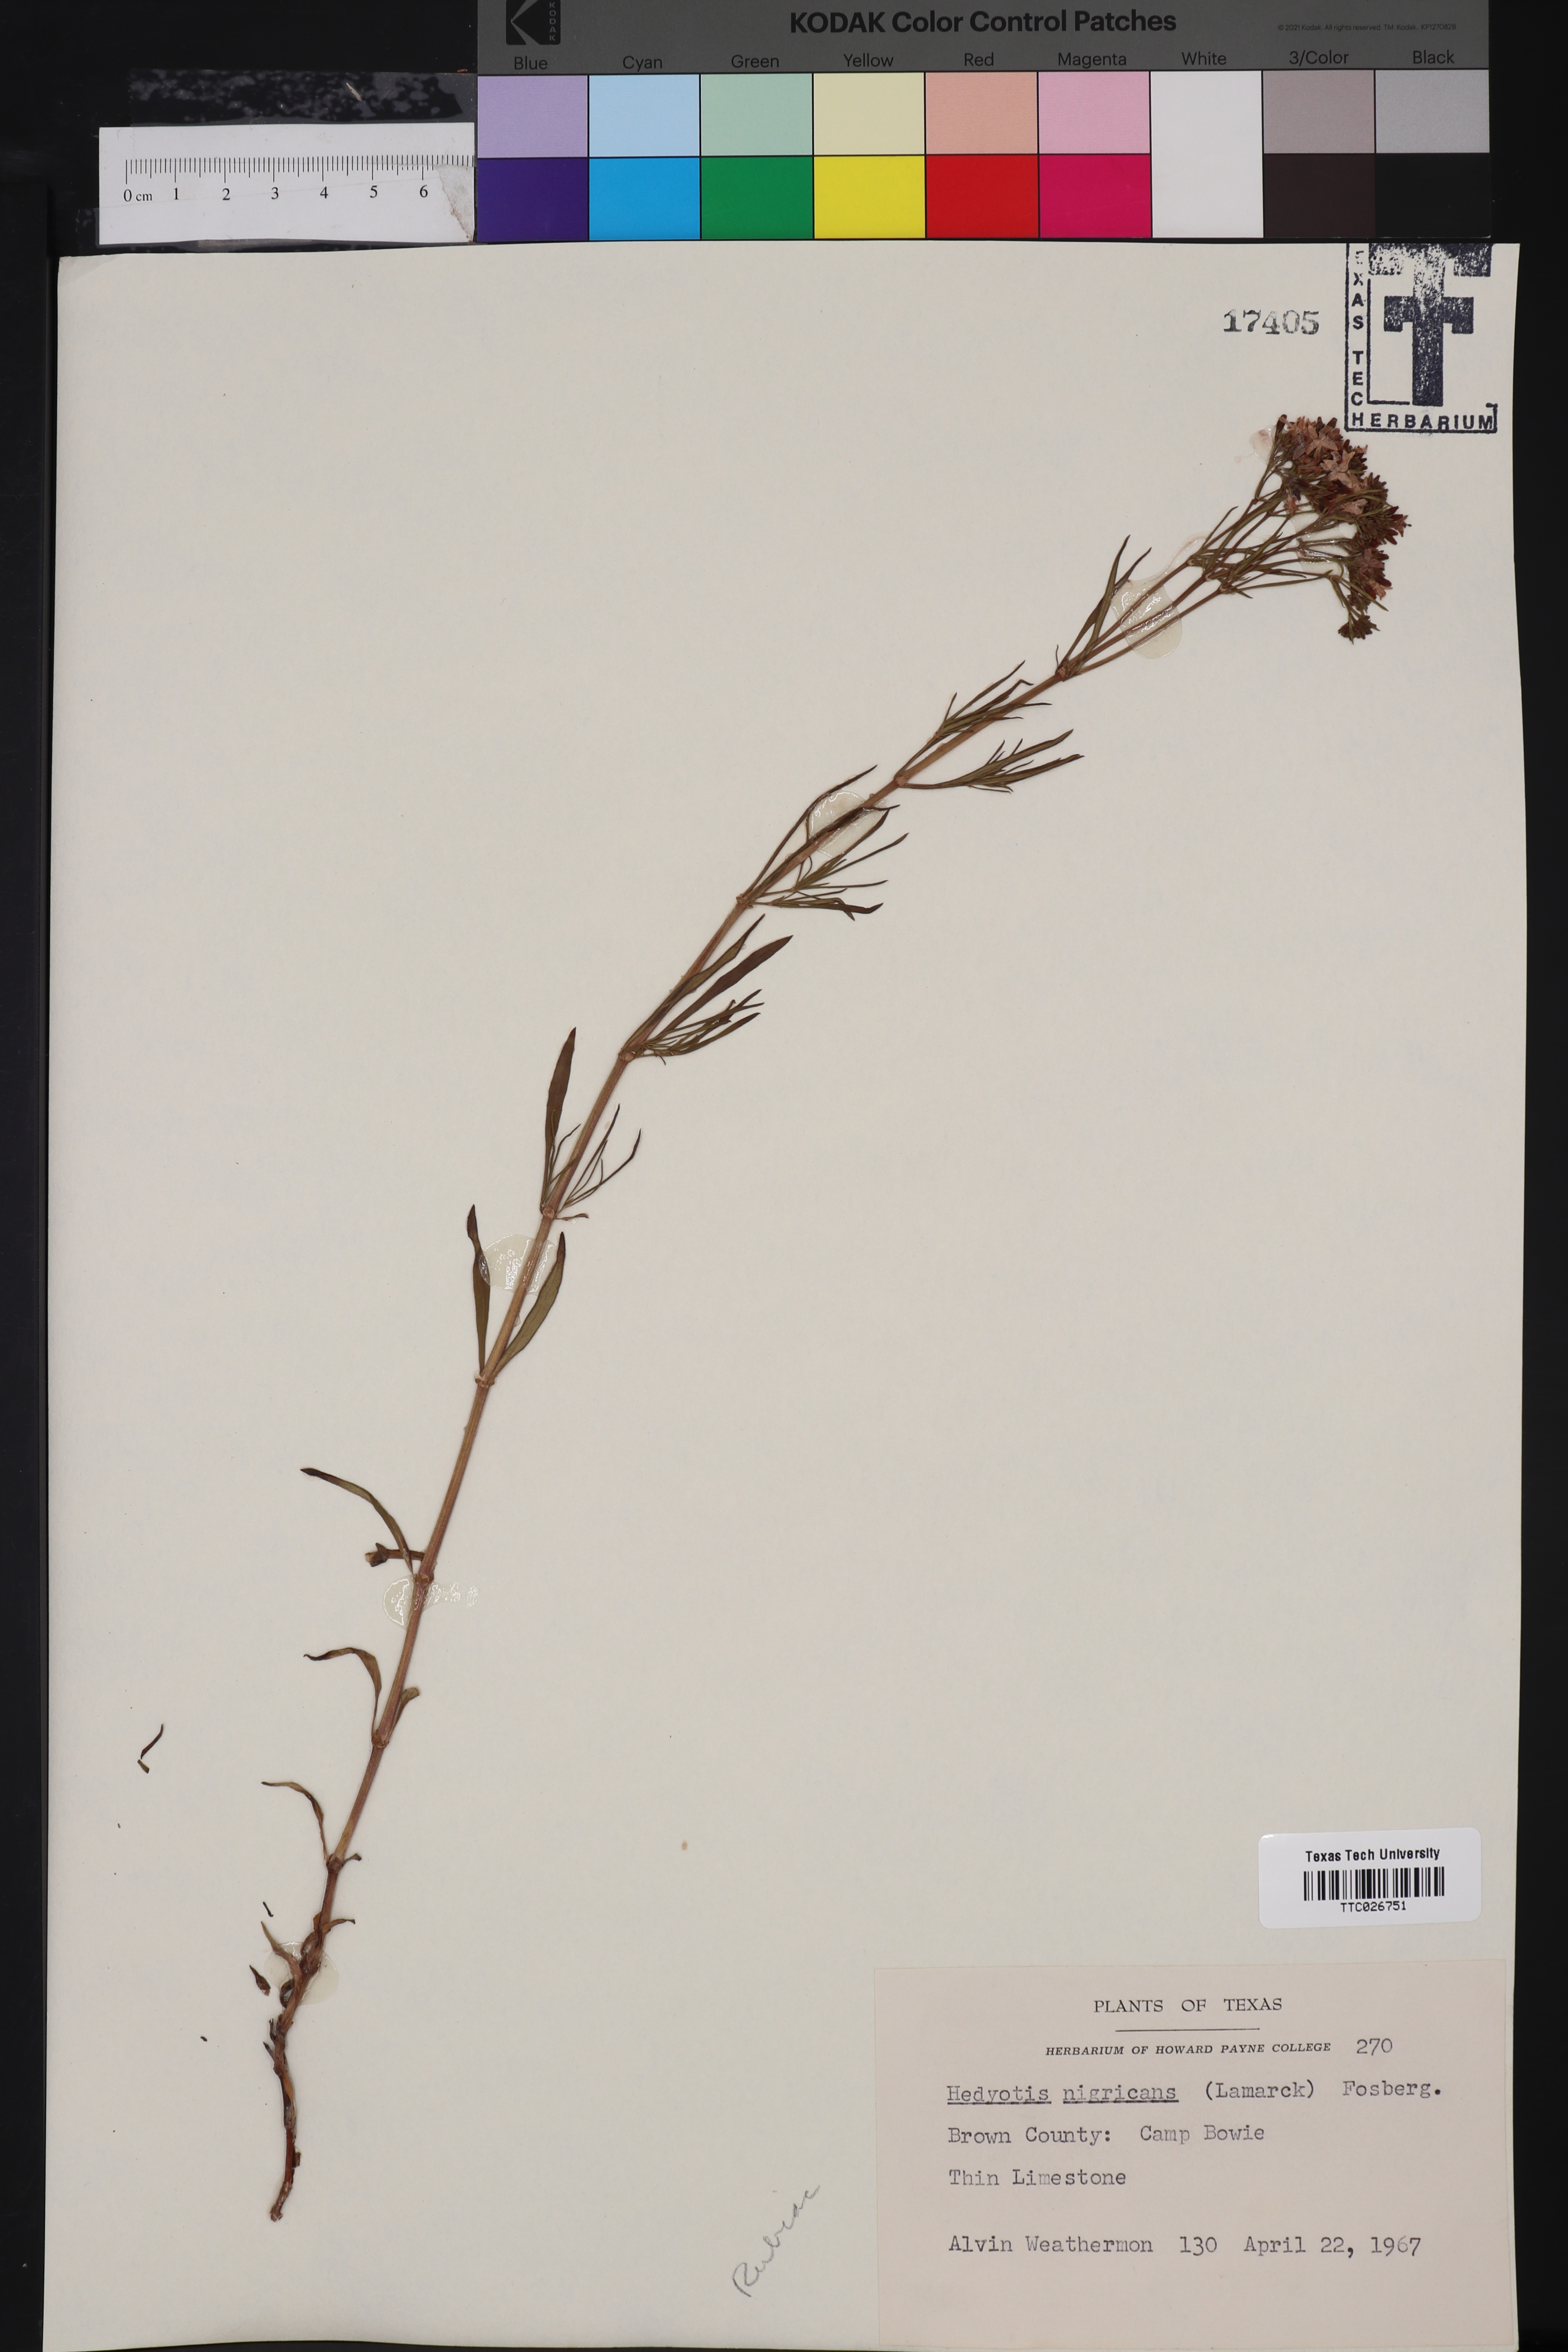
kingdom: Plantae
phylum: Tracheophyta
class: Magnoliopsida
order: Gentianales
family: Rubiaceae
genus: Stenaria
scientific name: Stenaria nigricans
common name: Diamondflowers
